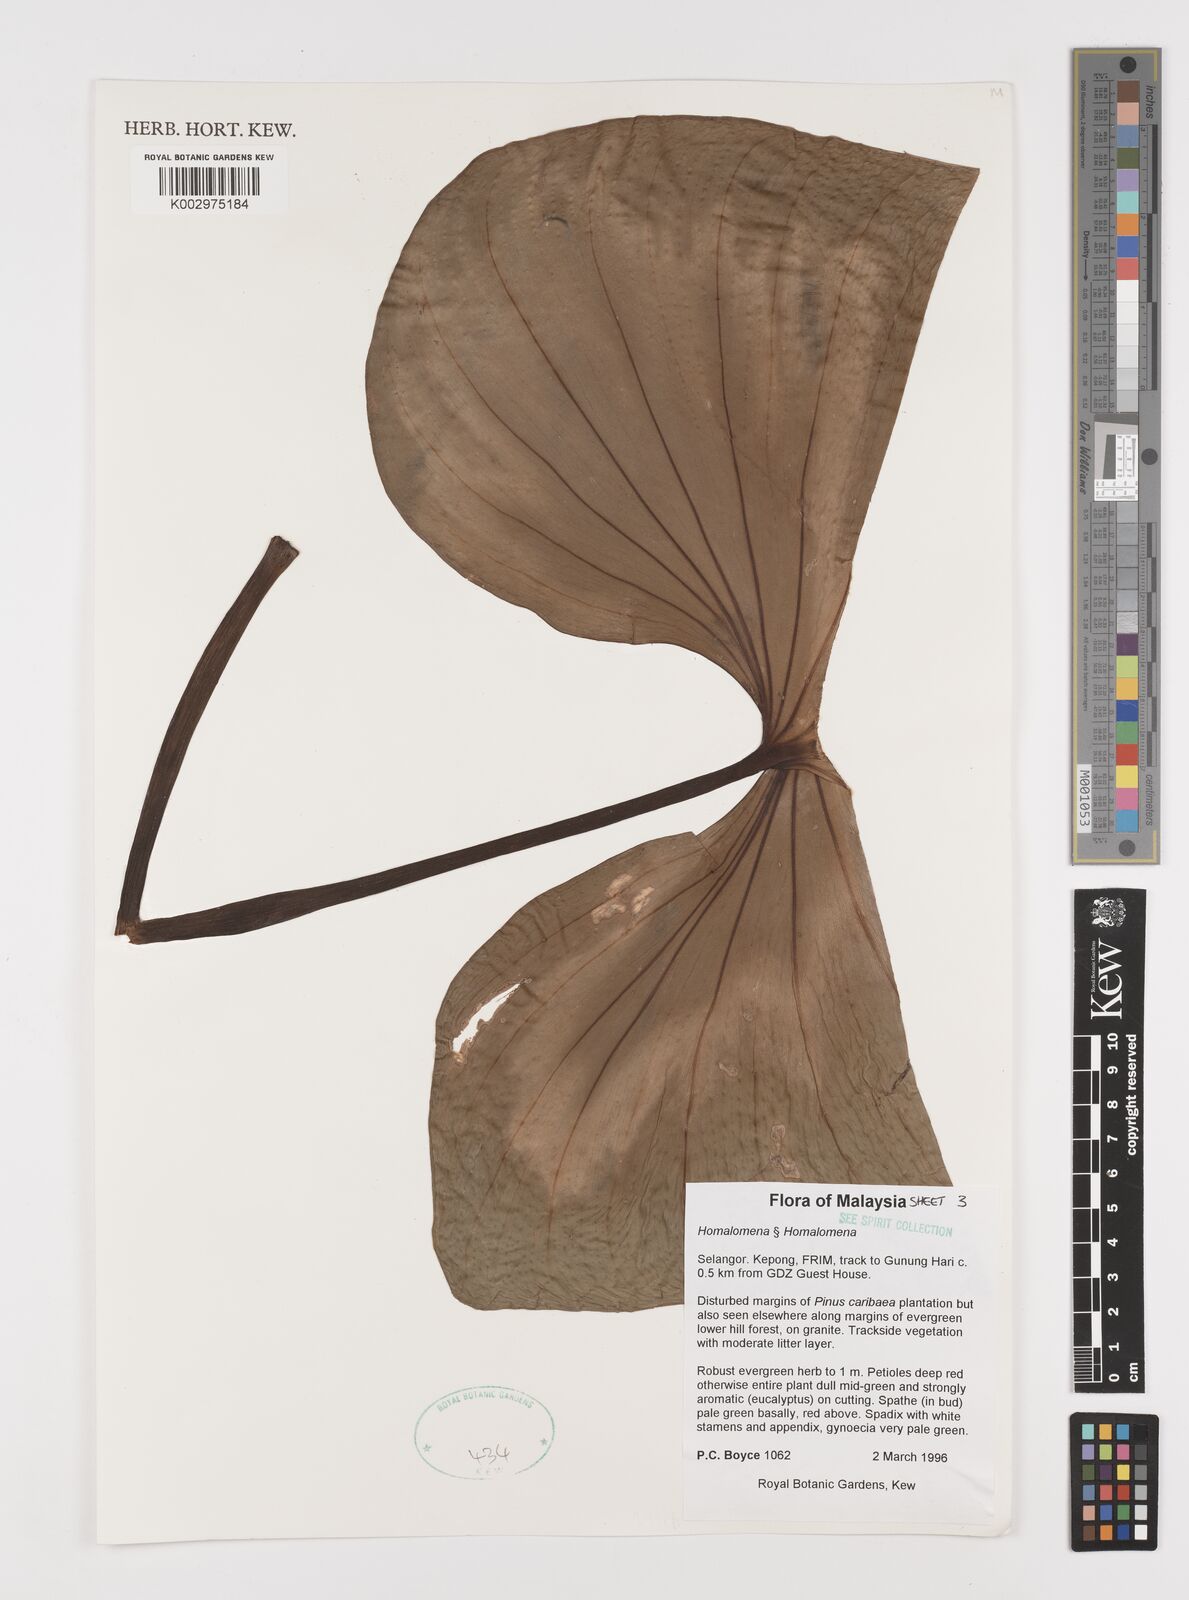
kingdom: Plantae
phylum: Tracheophyta
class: Liliopsida
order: Alismatales
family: Araceae
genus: Homalomena
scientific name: Homalomena
